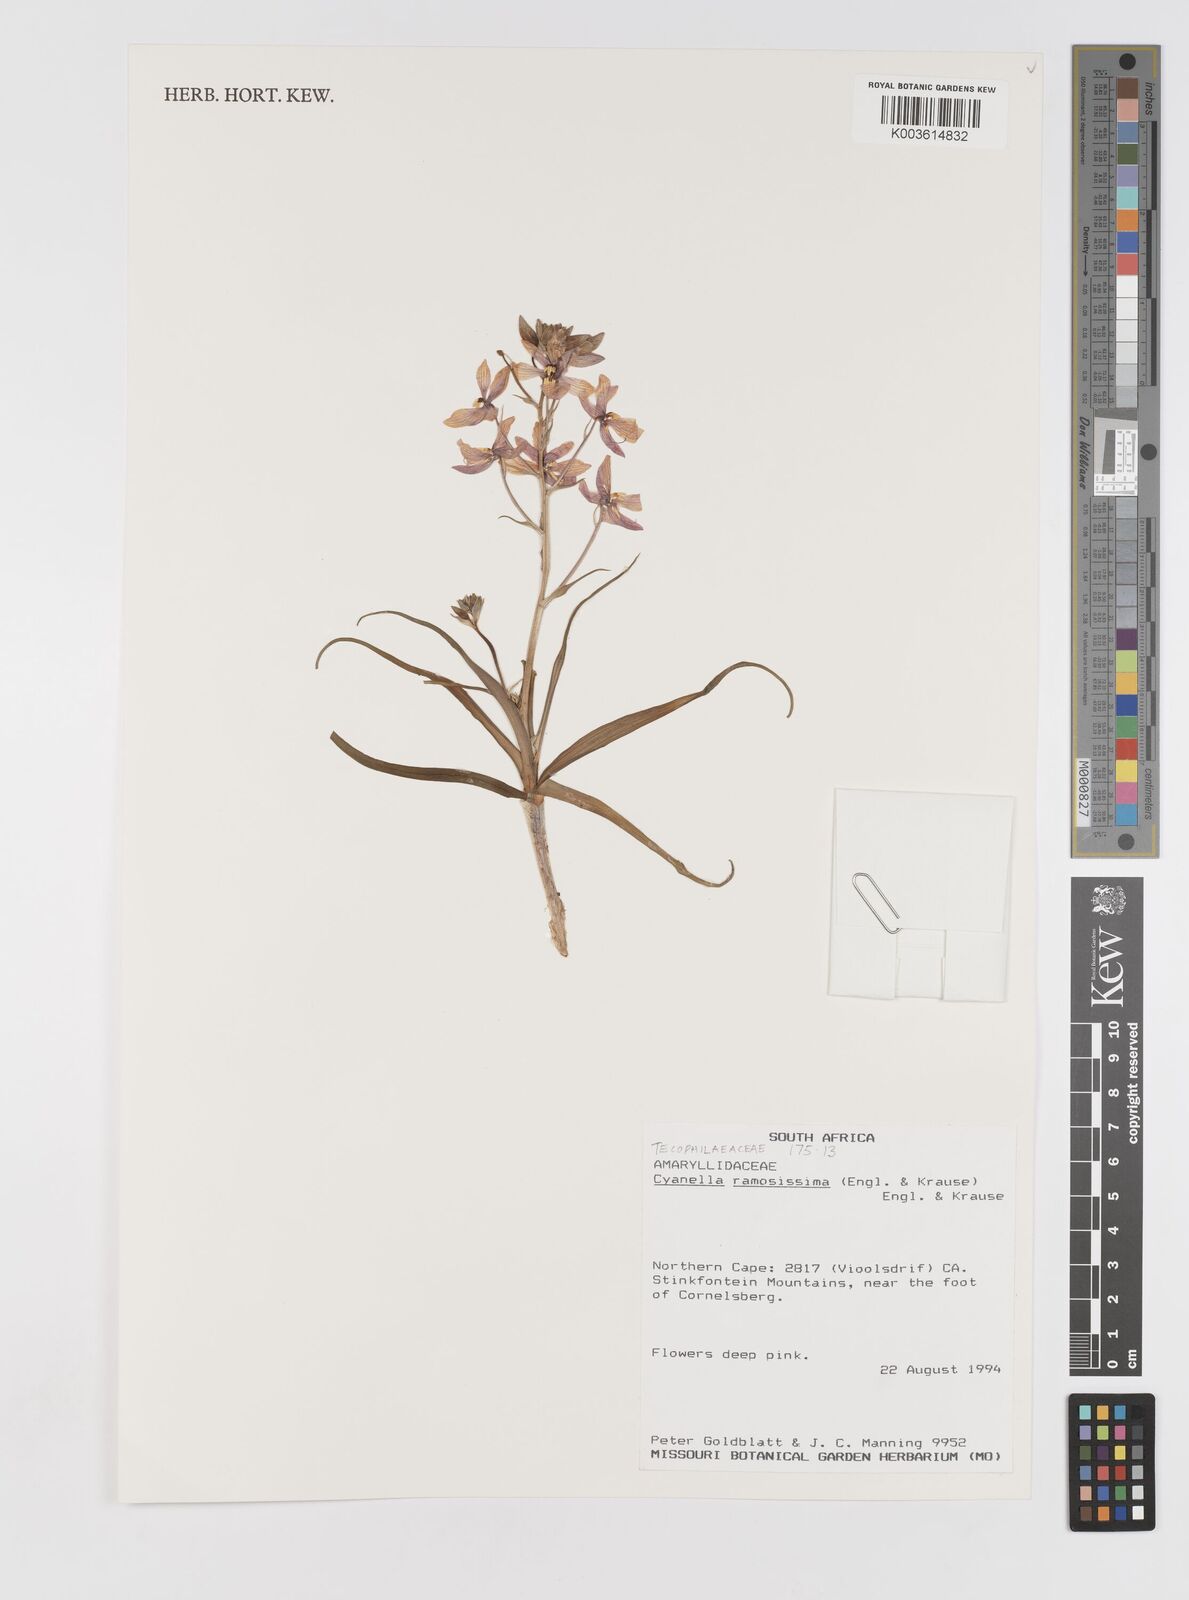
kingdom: Plantae
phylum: Tracheophyta
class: Liliopsida
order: Asparagales
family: Tecophilaeaceae
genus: Cyanella
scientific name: Cyanella ramosissima
